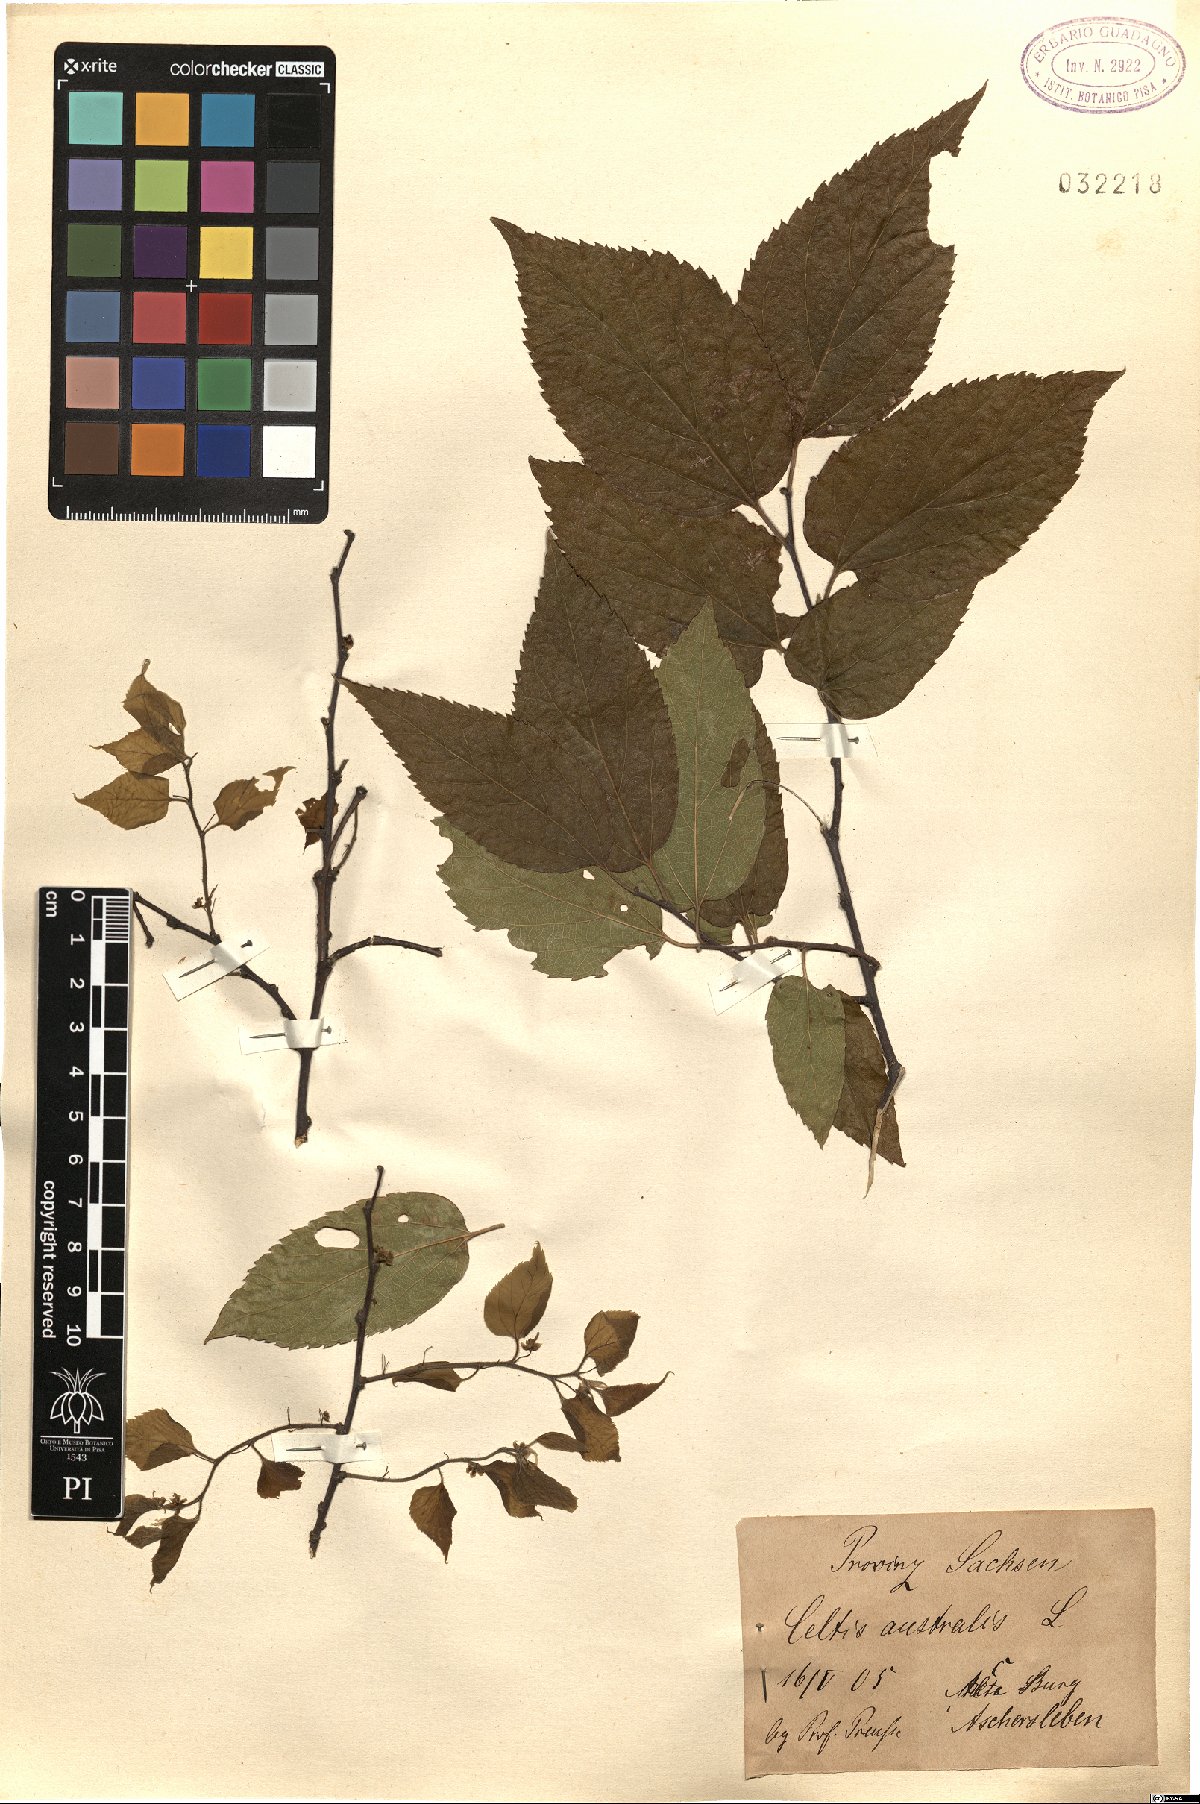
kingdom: Plantae
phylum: Tracheophyta
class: Magnoliopsida
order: Rosales
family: Cannabaceae
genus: Celtis
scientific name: Celtis australis
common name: European hackberry
